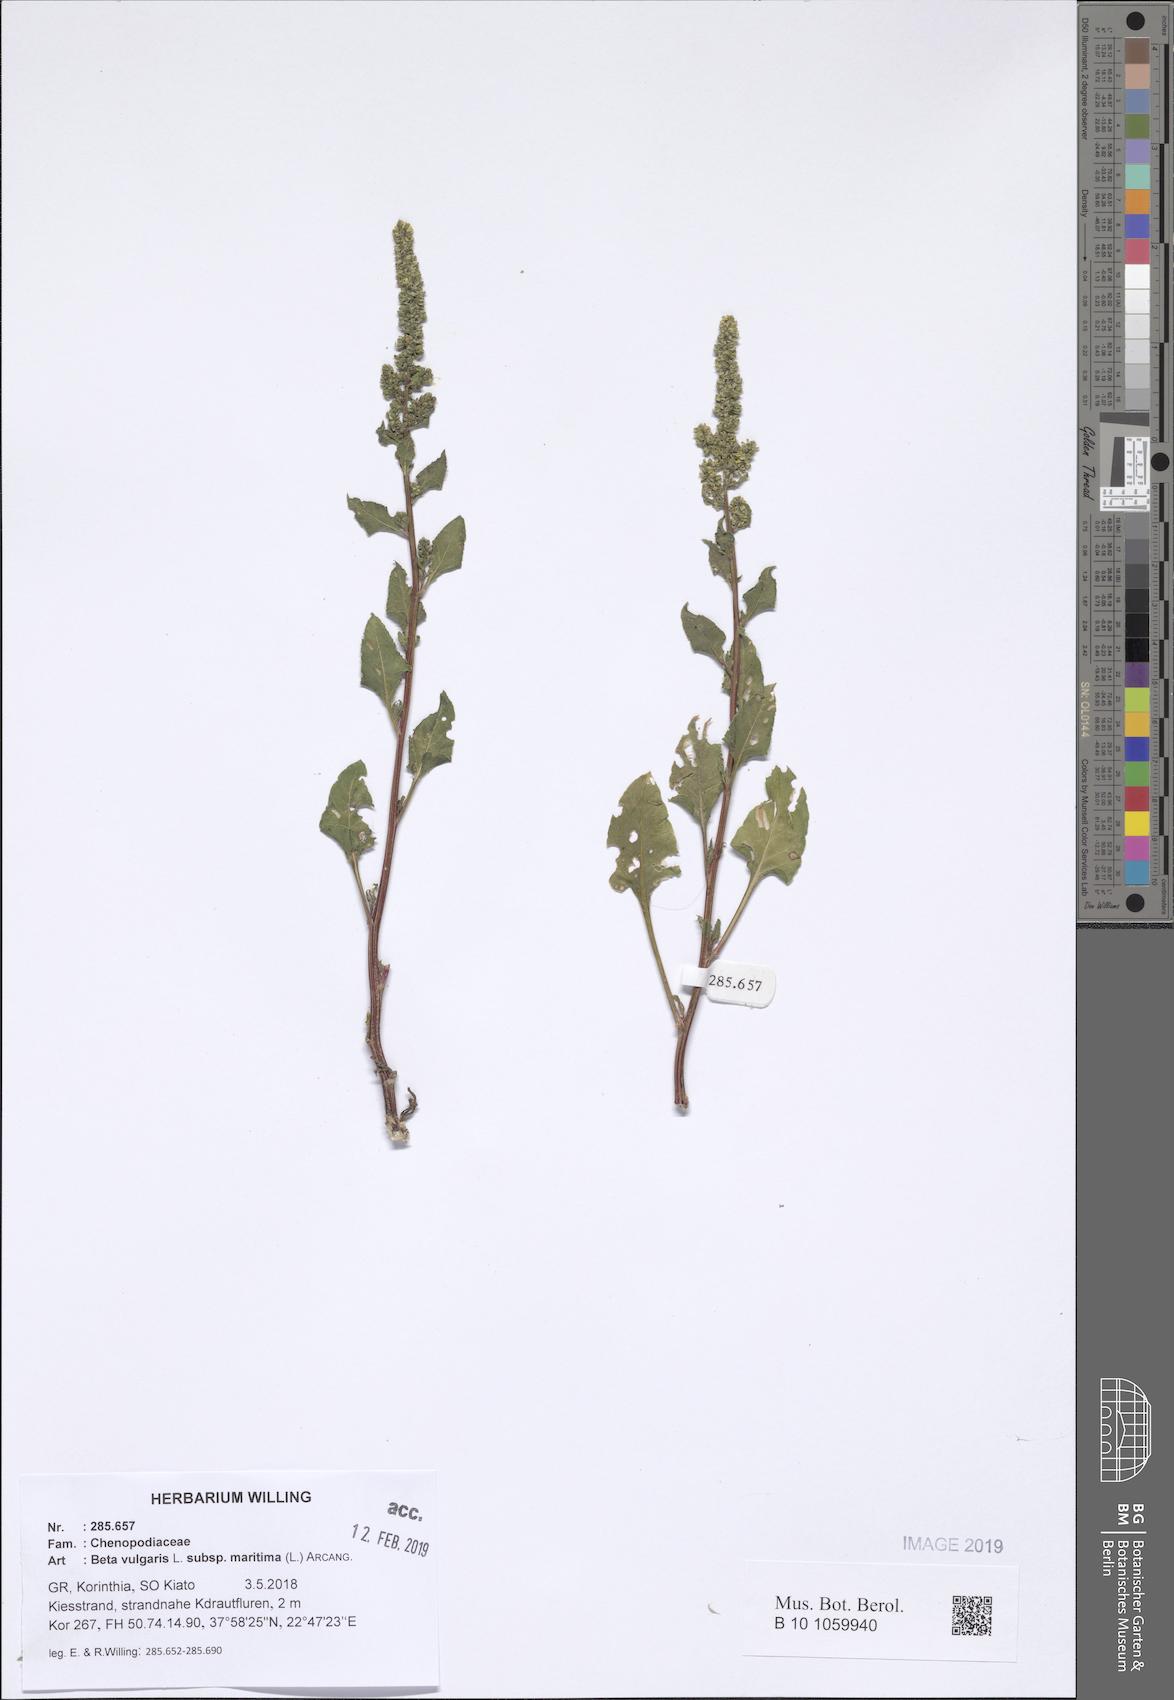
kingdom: Plantae
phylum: Tracheophyta
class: Magnoliopsida
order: Caryophyllales
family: Amaranthaceae
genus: Beta
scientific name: Beta maritima
